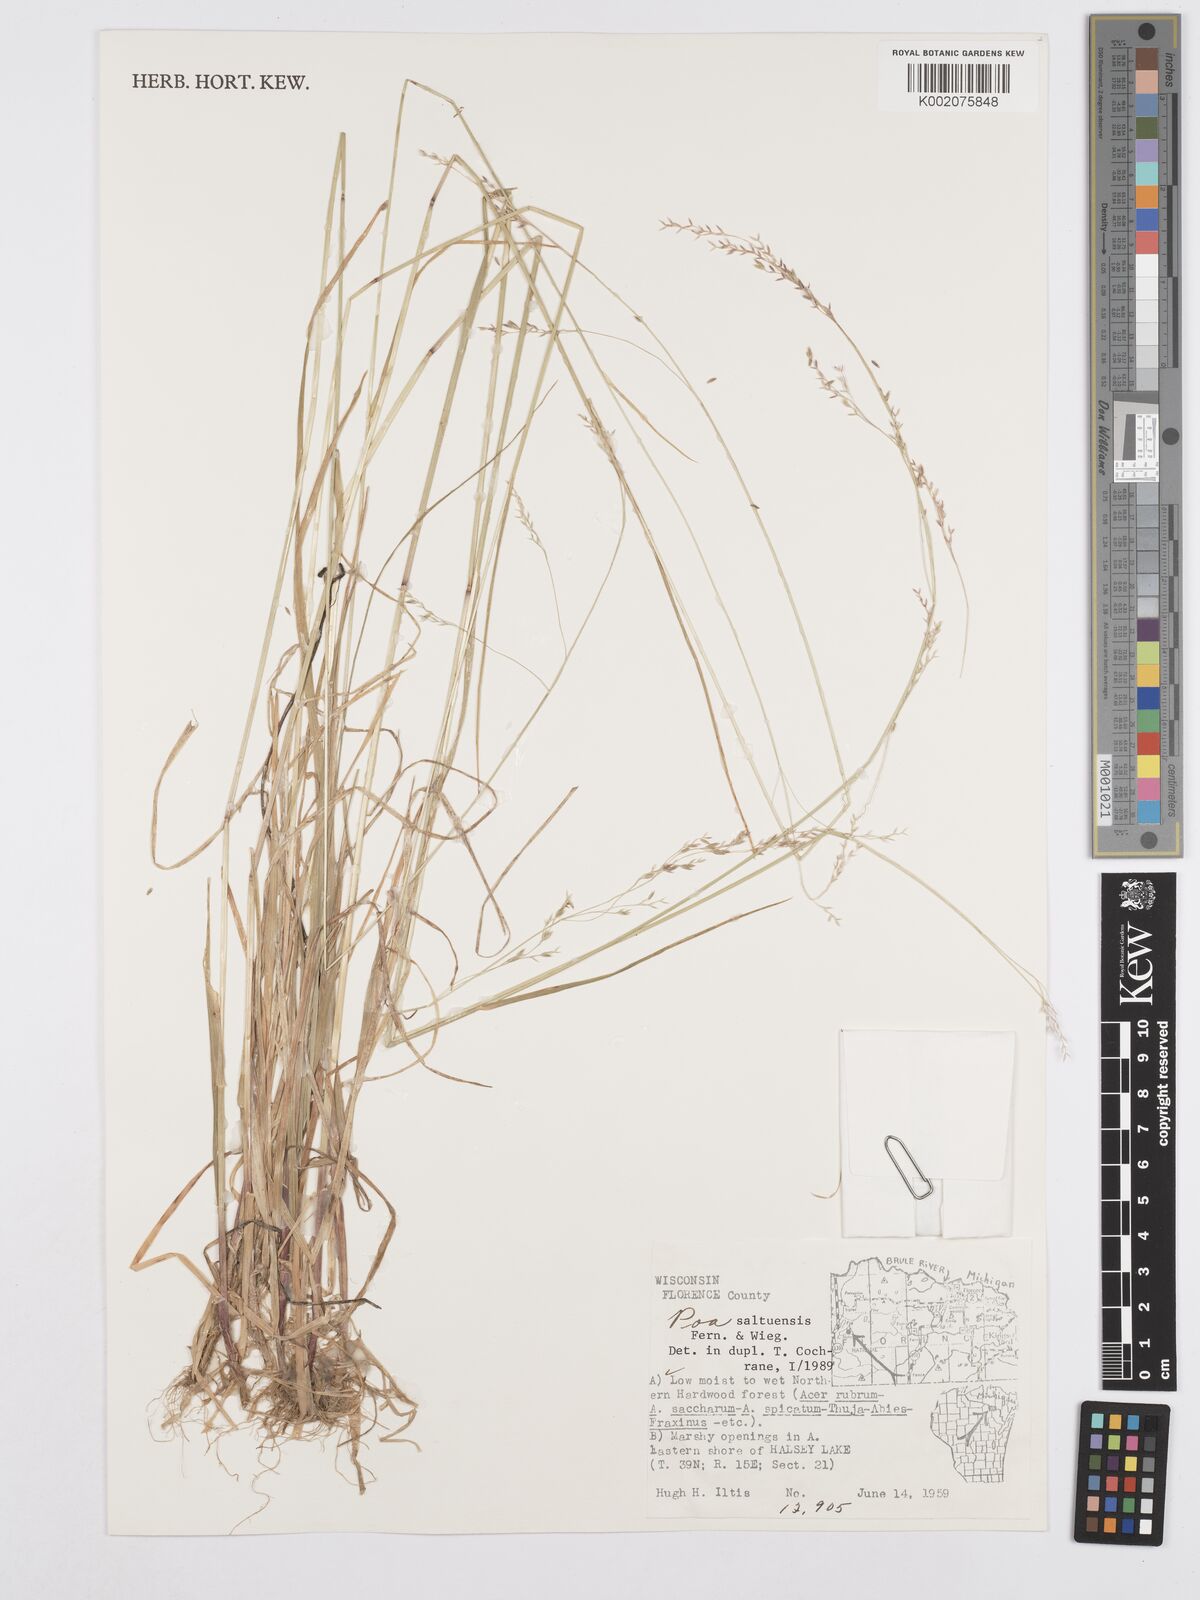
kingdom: Plantae
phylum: Tracheophyta
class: Liliopsida
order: Poales
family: Poaceae
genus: Poa
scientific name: Poa saltuensis
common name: Bushy pasture speargrass
